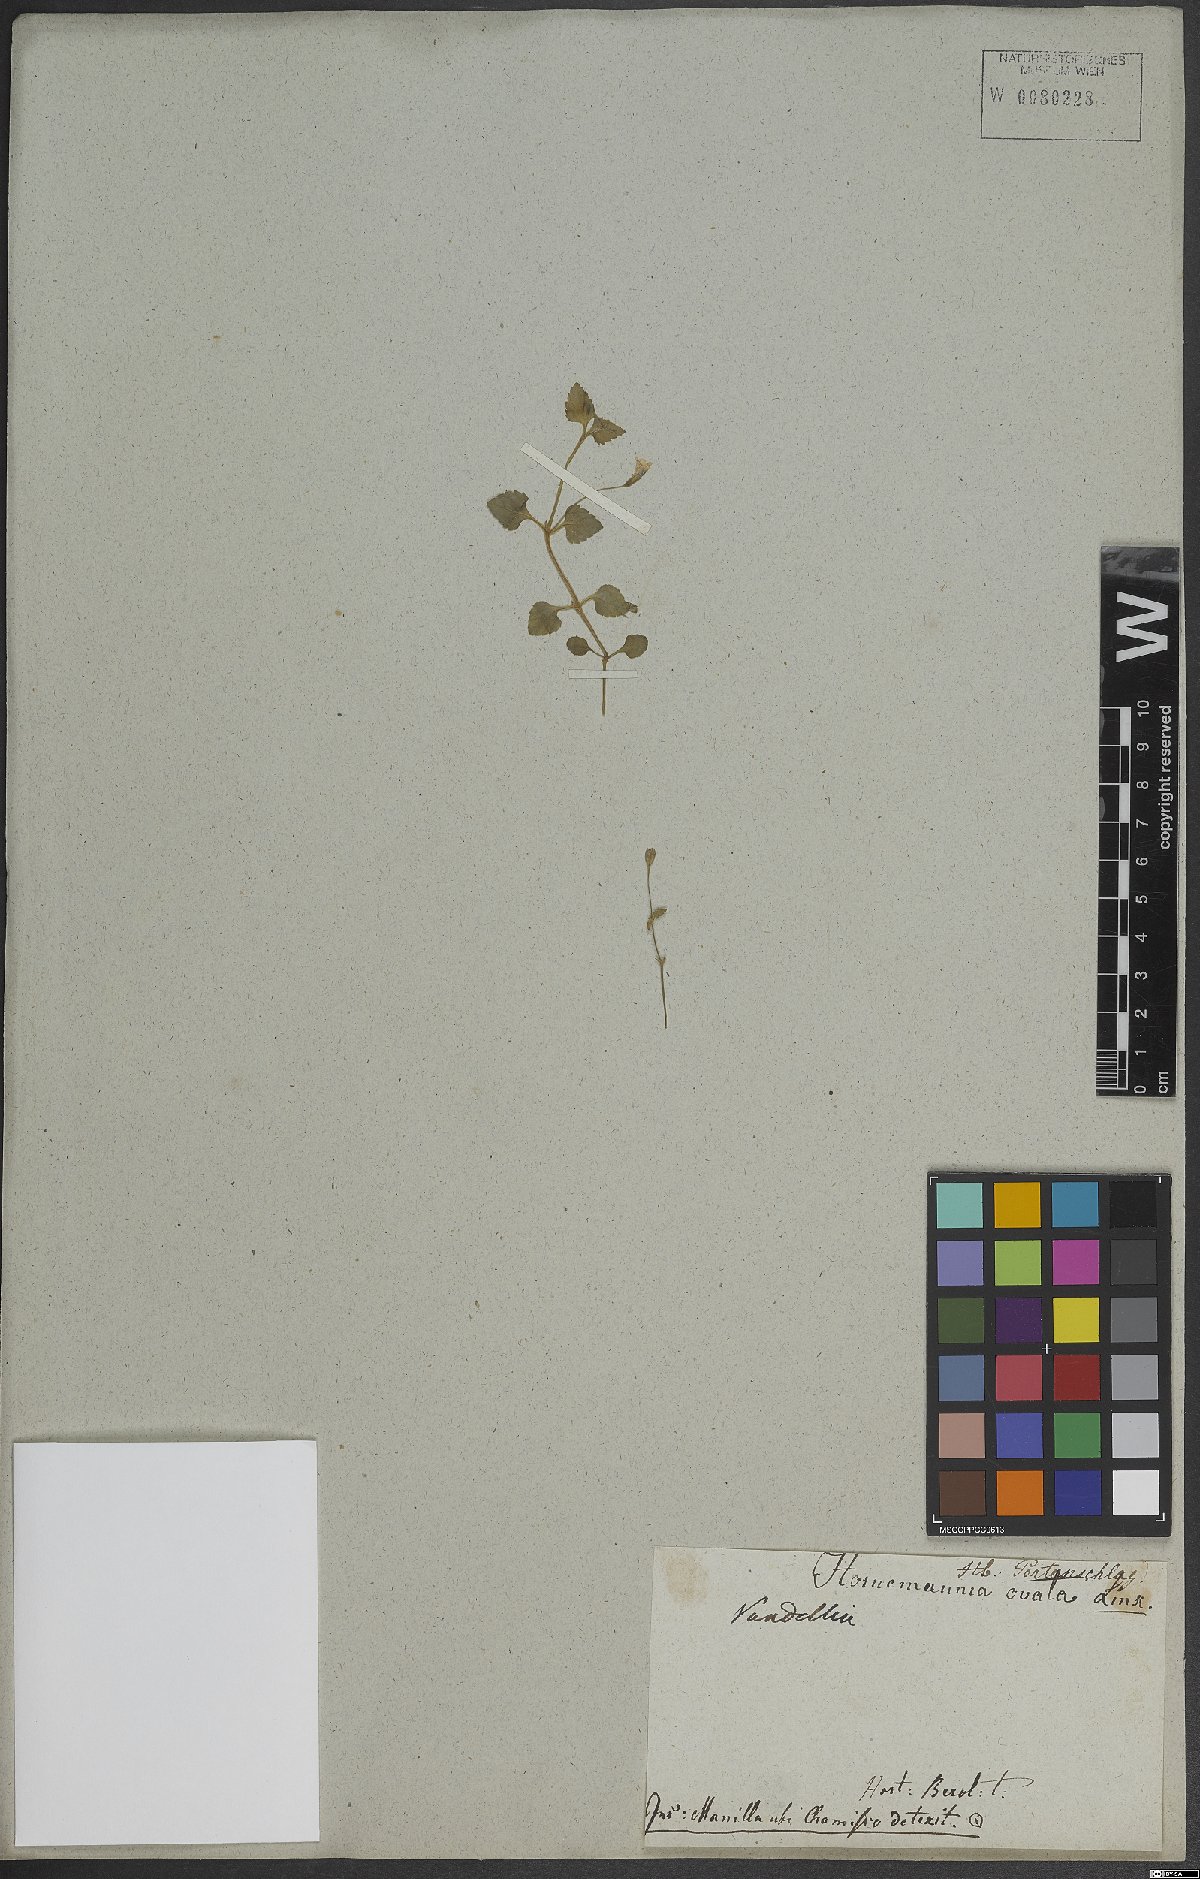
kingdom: Plantae
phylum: Tracheophyta
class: Magnoliopsida
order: Lamiales
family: Linderniaceae
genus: Vandellia
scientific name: Vandellia
